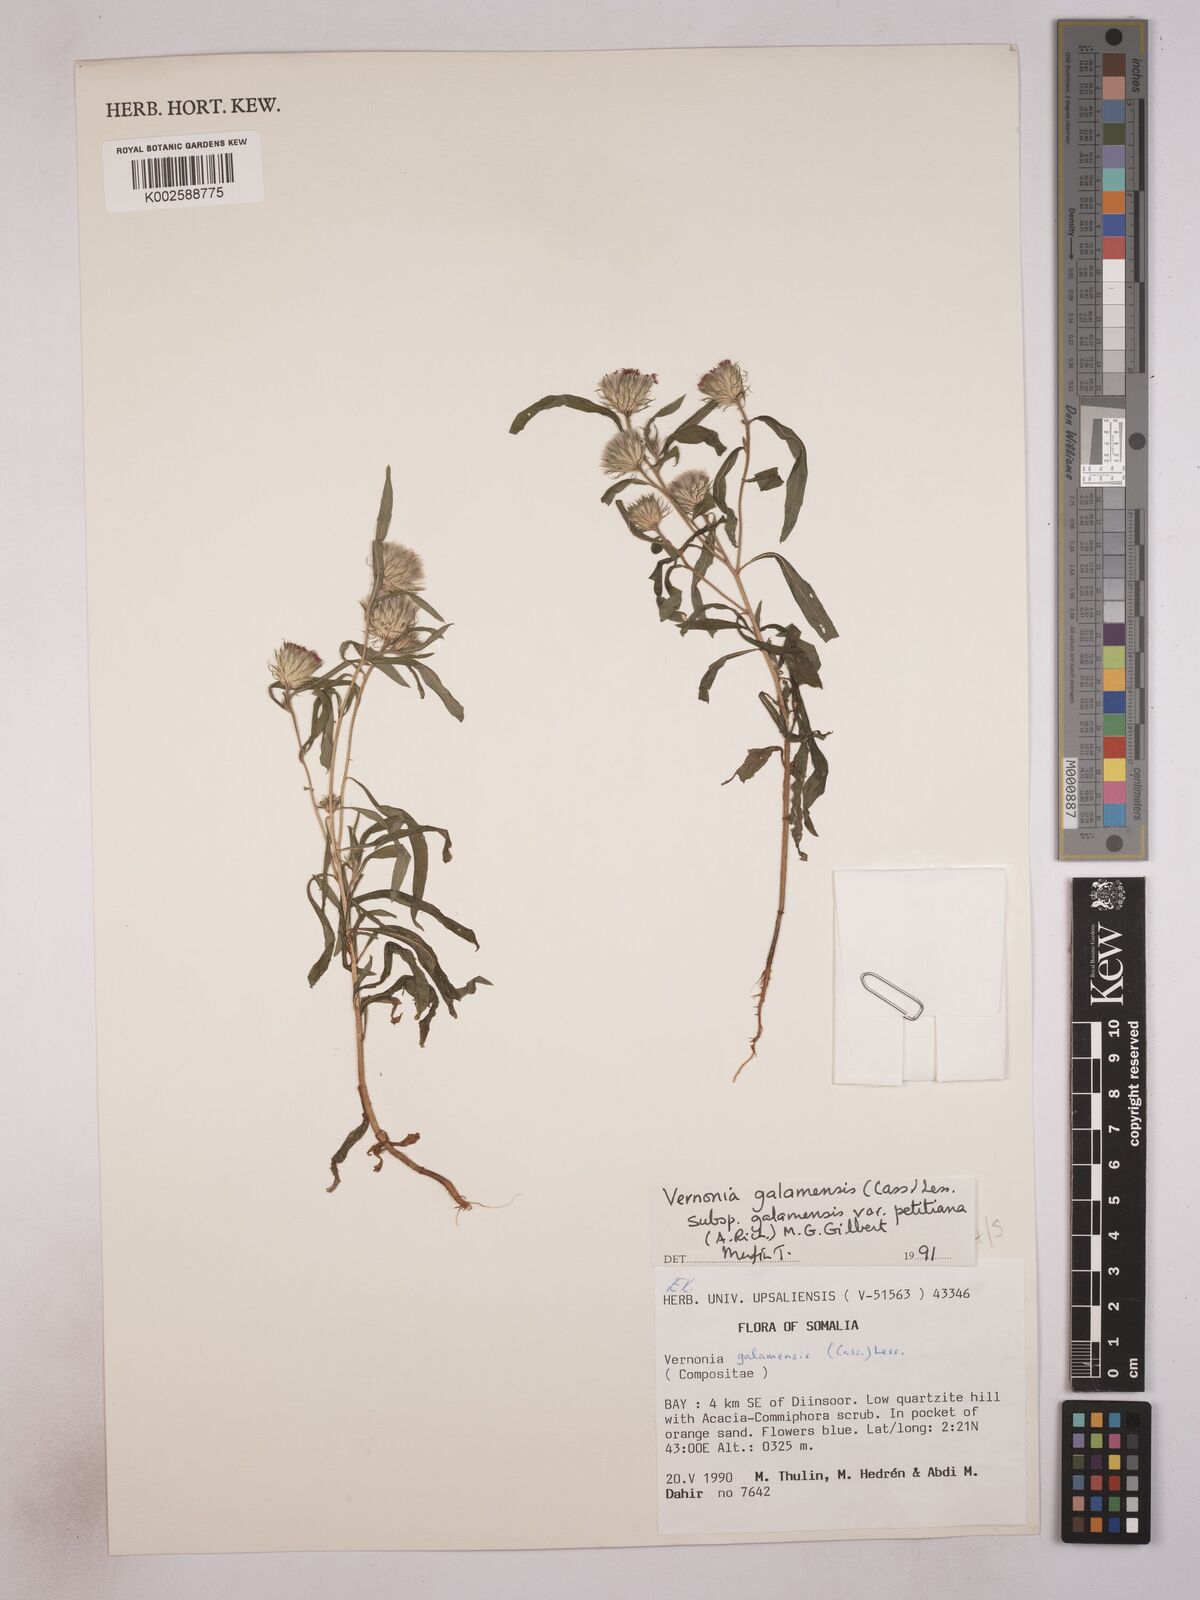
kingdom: Plantae
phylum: Tracheophyta
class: Magnoliopsida
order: Asterales
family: Asteraceae
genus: Vernonia
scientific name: Vernonia galamensis
